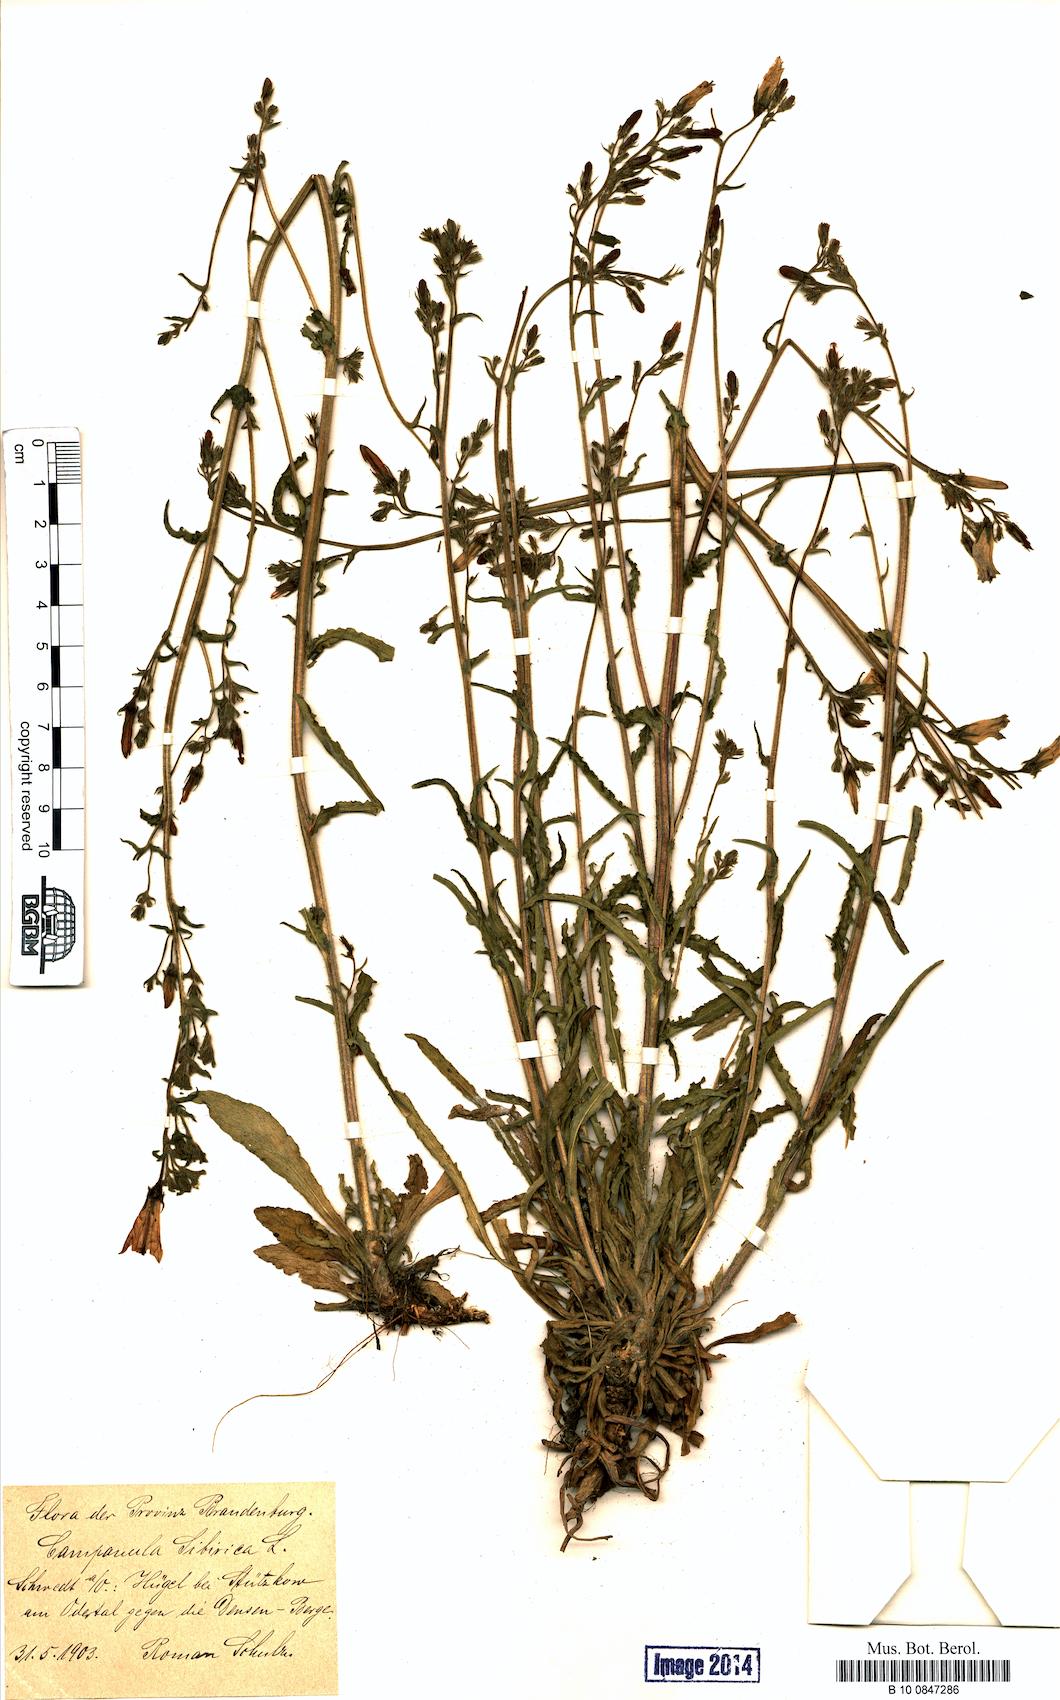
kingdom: Plantae
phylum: Tracheophyta
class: Magnoliopsida
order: Asterales
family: Campanulaceae
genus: Campanula
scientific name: Campanula sibirica
